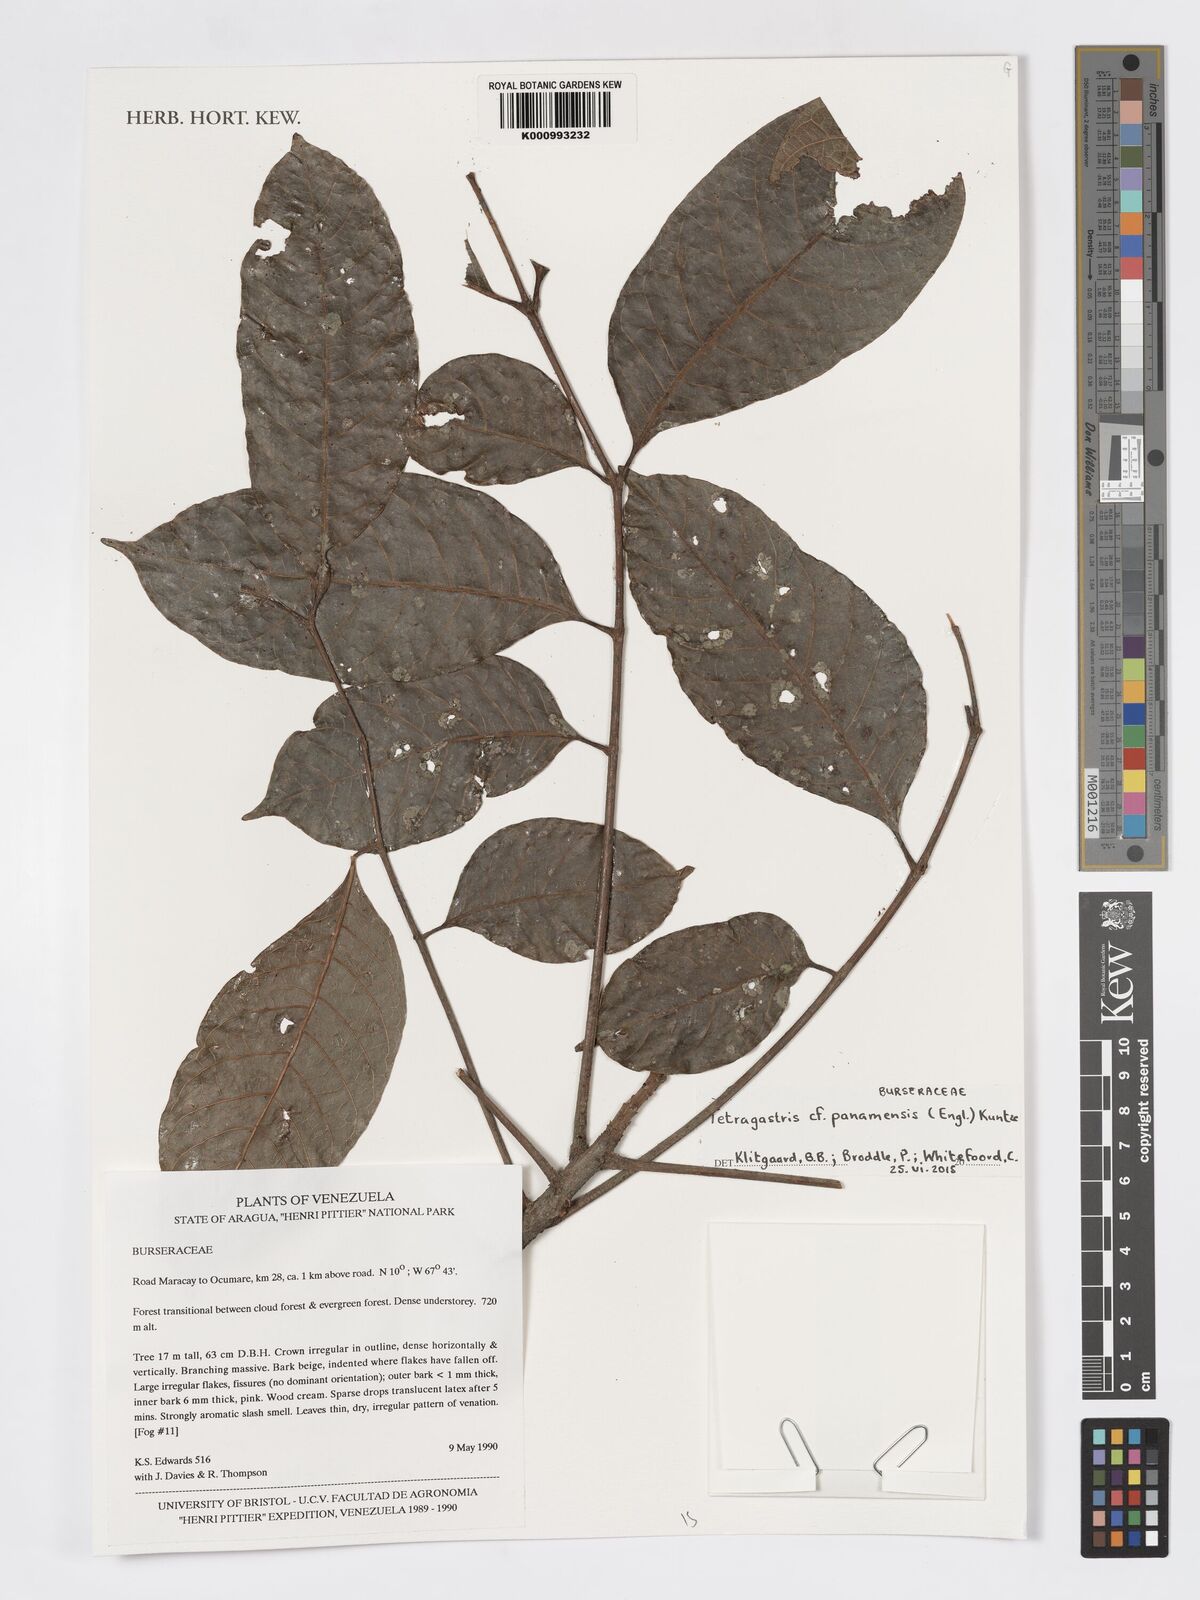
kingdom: Plantae
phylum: Tracheophyta
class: Magnoliopsida
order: Sapindales
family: Burseraceae
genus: Tetragastris
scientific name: Tetragastris panamensis
